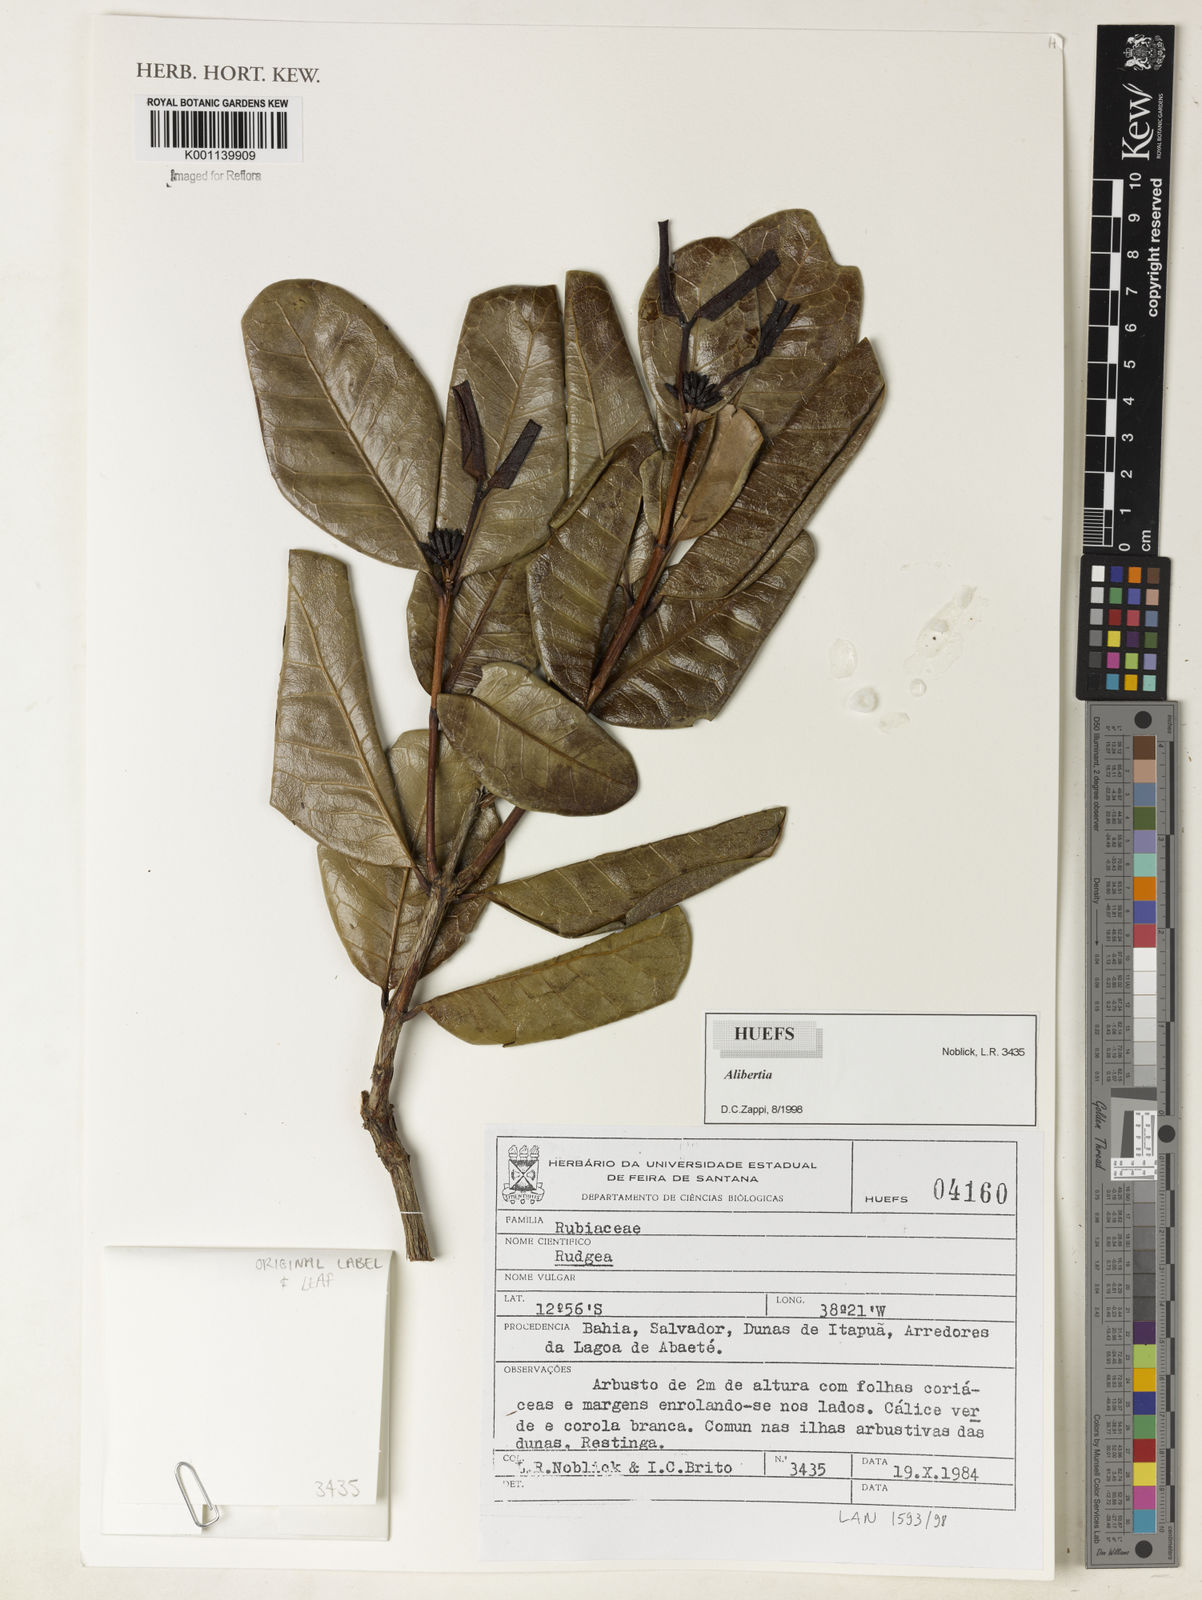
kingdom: Plantae
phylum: Tracheophyta
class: Magnoliopsida
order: Gentianales
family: Rubiaceae
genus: Alibertia
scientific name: Alibertia
